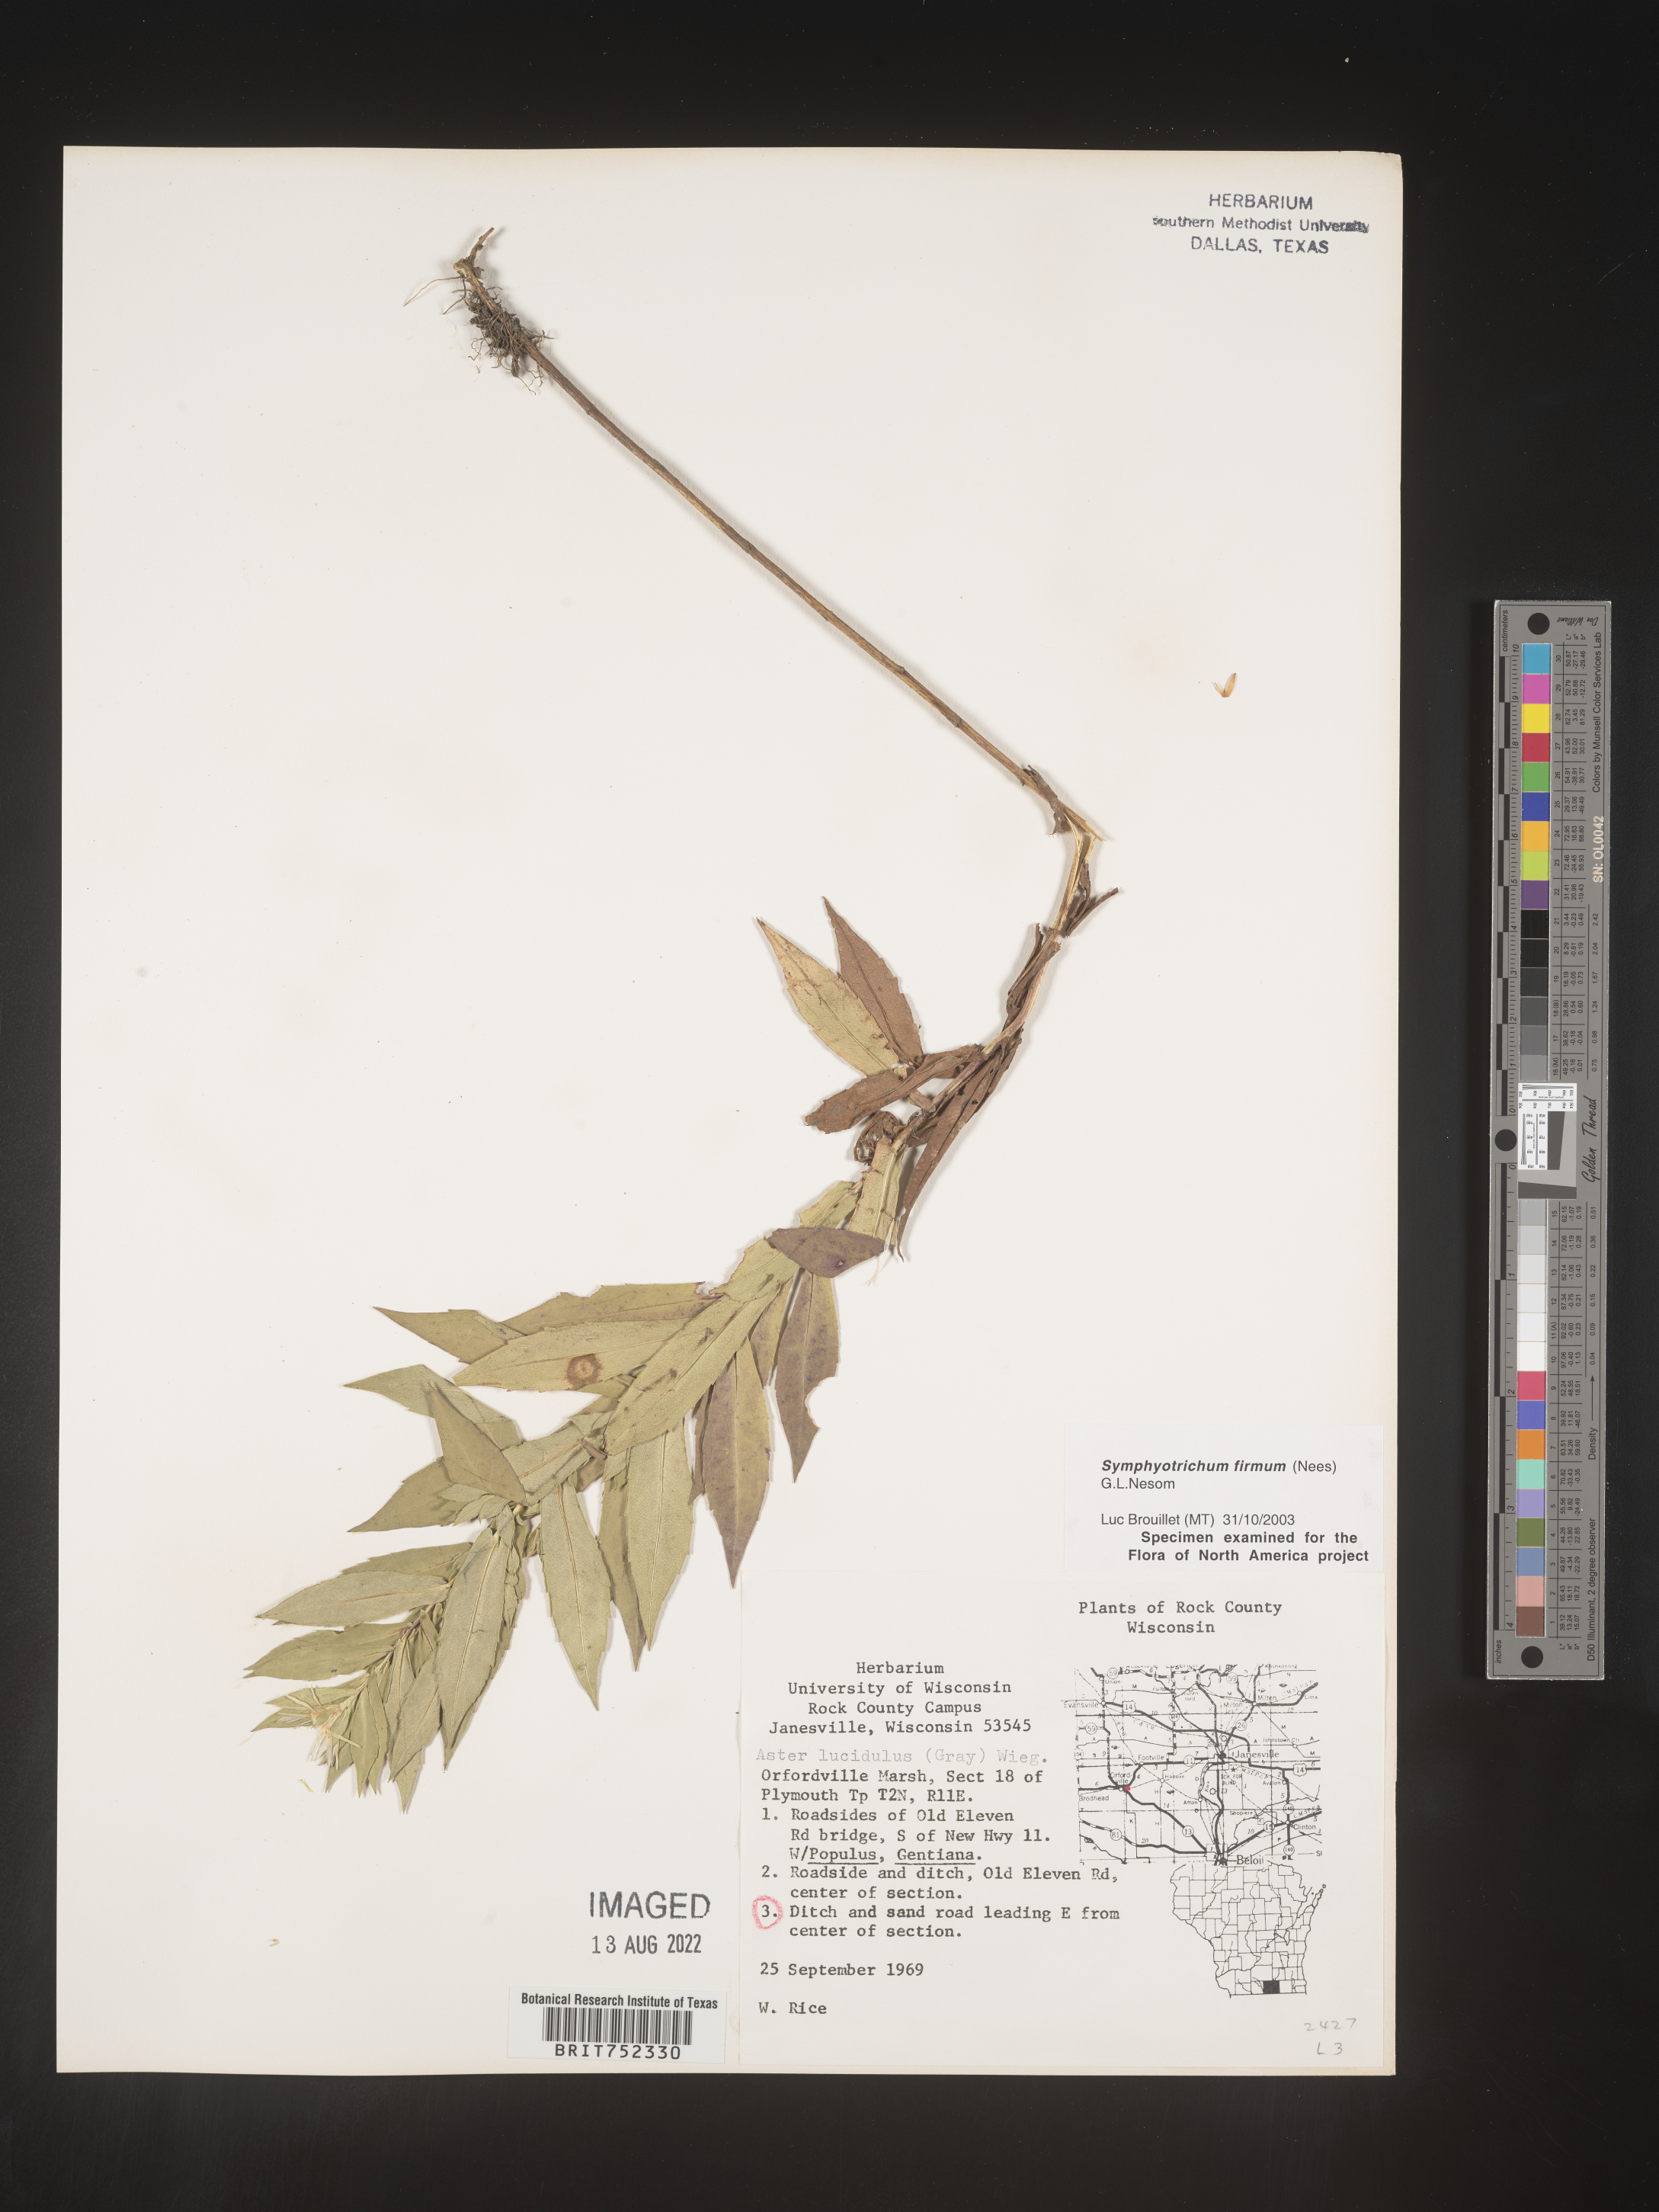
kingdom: Plantae
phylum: Tracheophyta
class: Magnoliopsida
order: Asterales
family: Asteraceae
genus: Symphyotrichum
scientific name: Symphyotrichum firmum
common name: Shining aster
